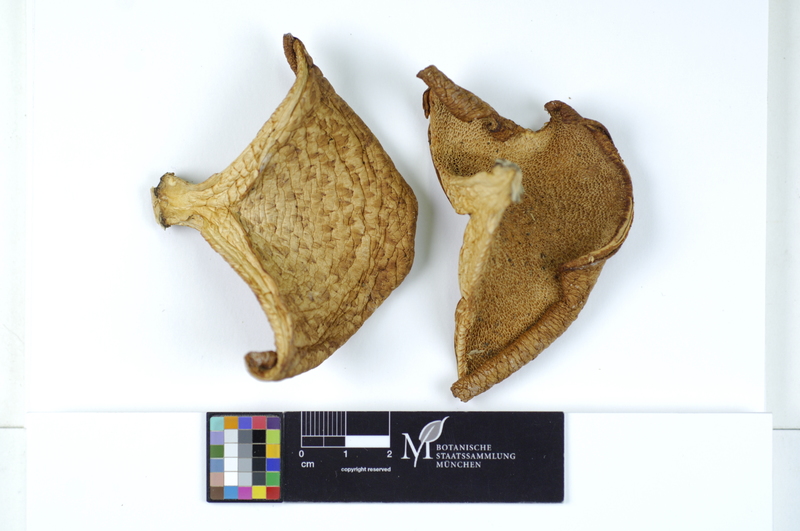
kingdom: Plantae
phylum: Tracheophyta
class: Magnoliopsida
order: Fagales
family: Betulaceae
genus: Corylus
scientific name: Corylus
